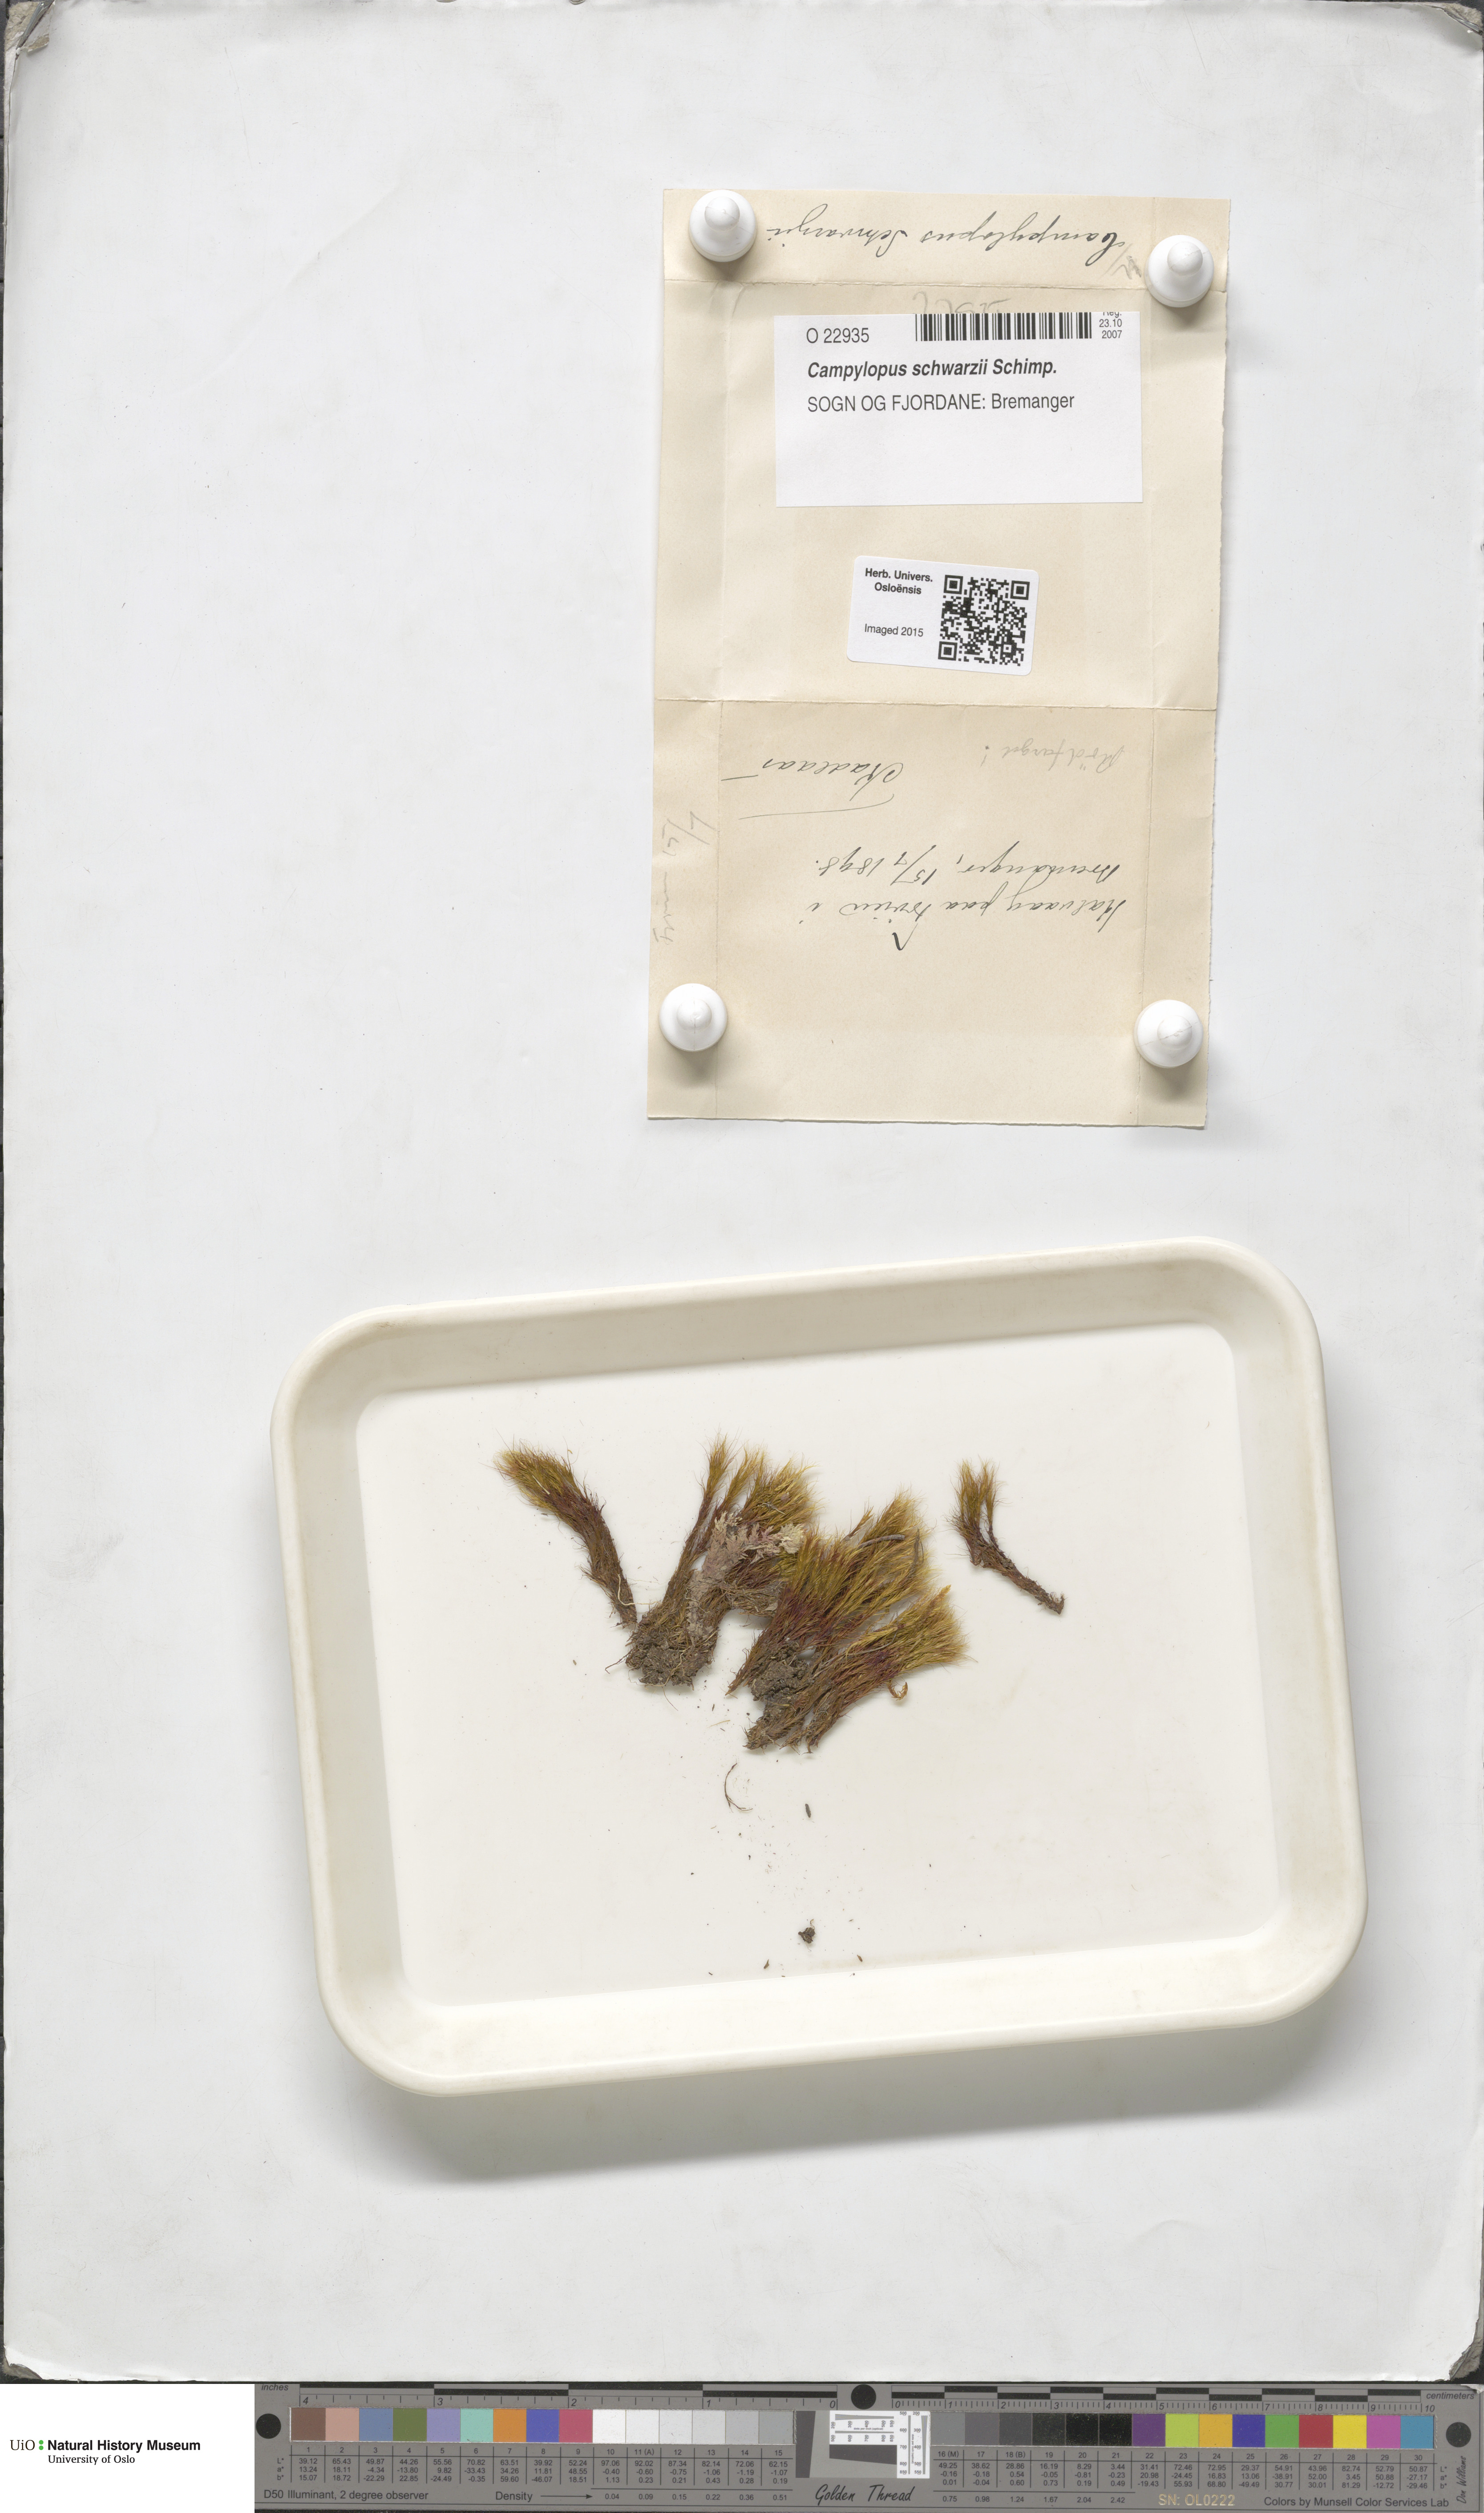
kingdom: Plantae
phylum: Bryophyta
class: Bryopsida
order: Dicranales
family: Leucobryaceae
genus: Campylopus
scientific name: Campylopus gracilis
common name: Schwarz's swan-neck moss
